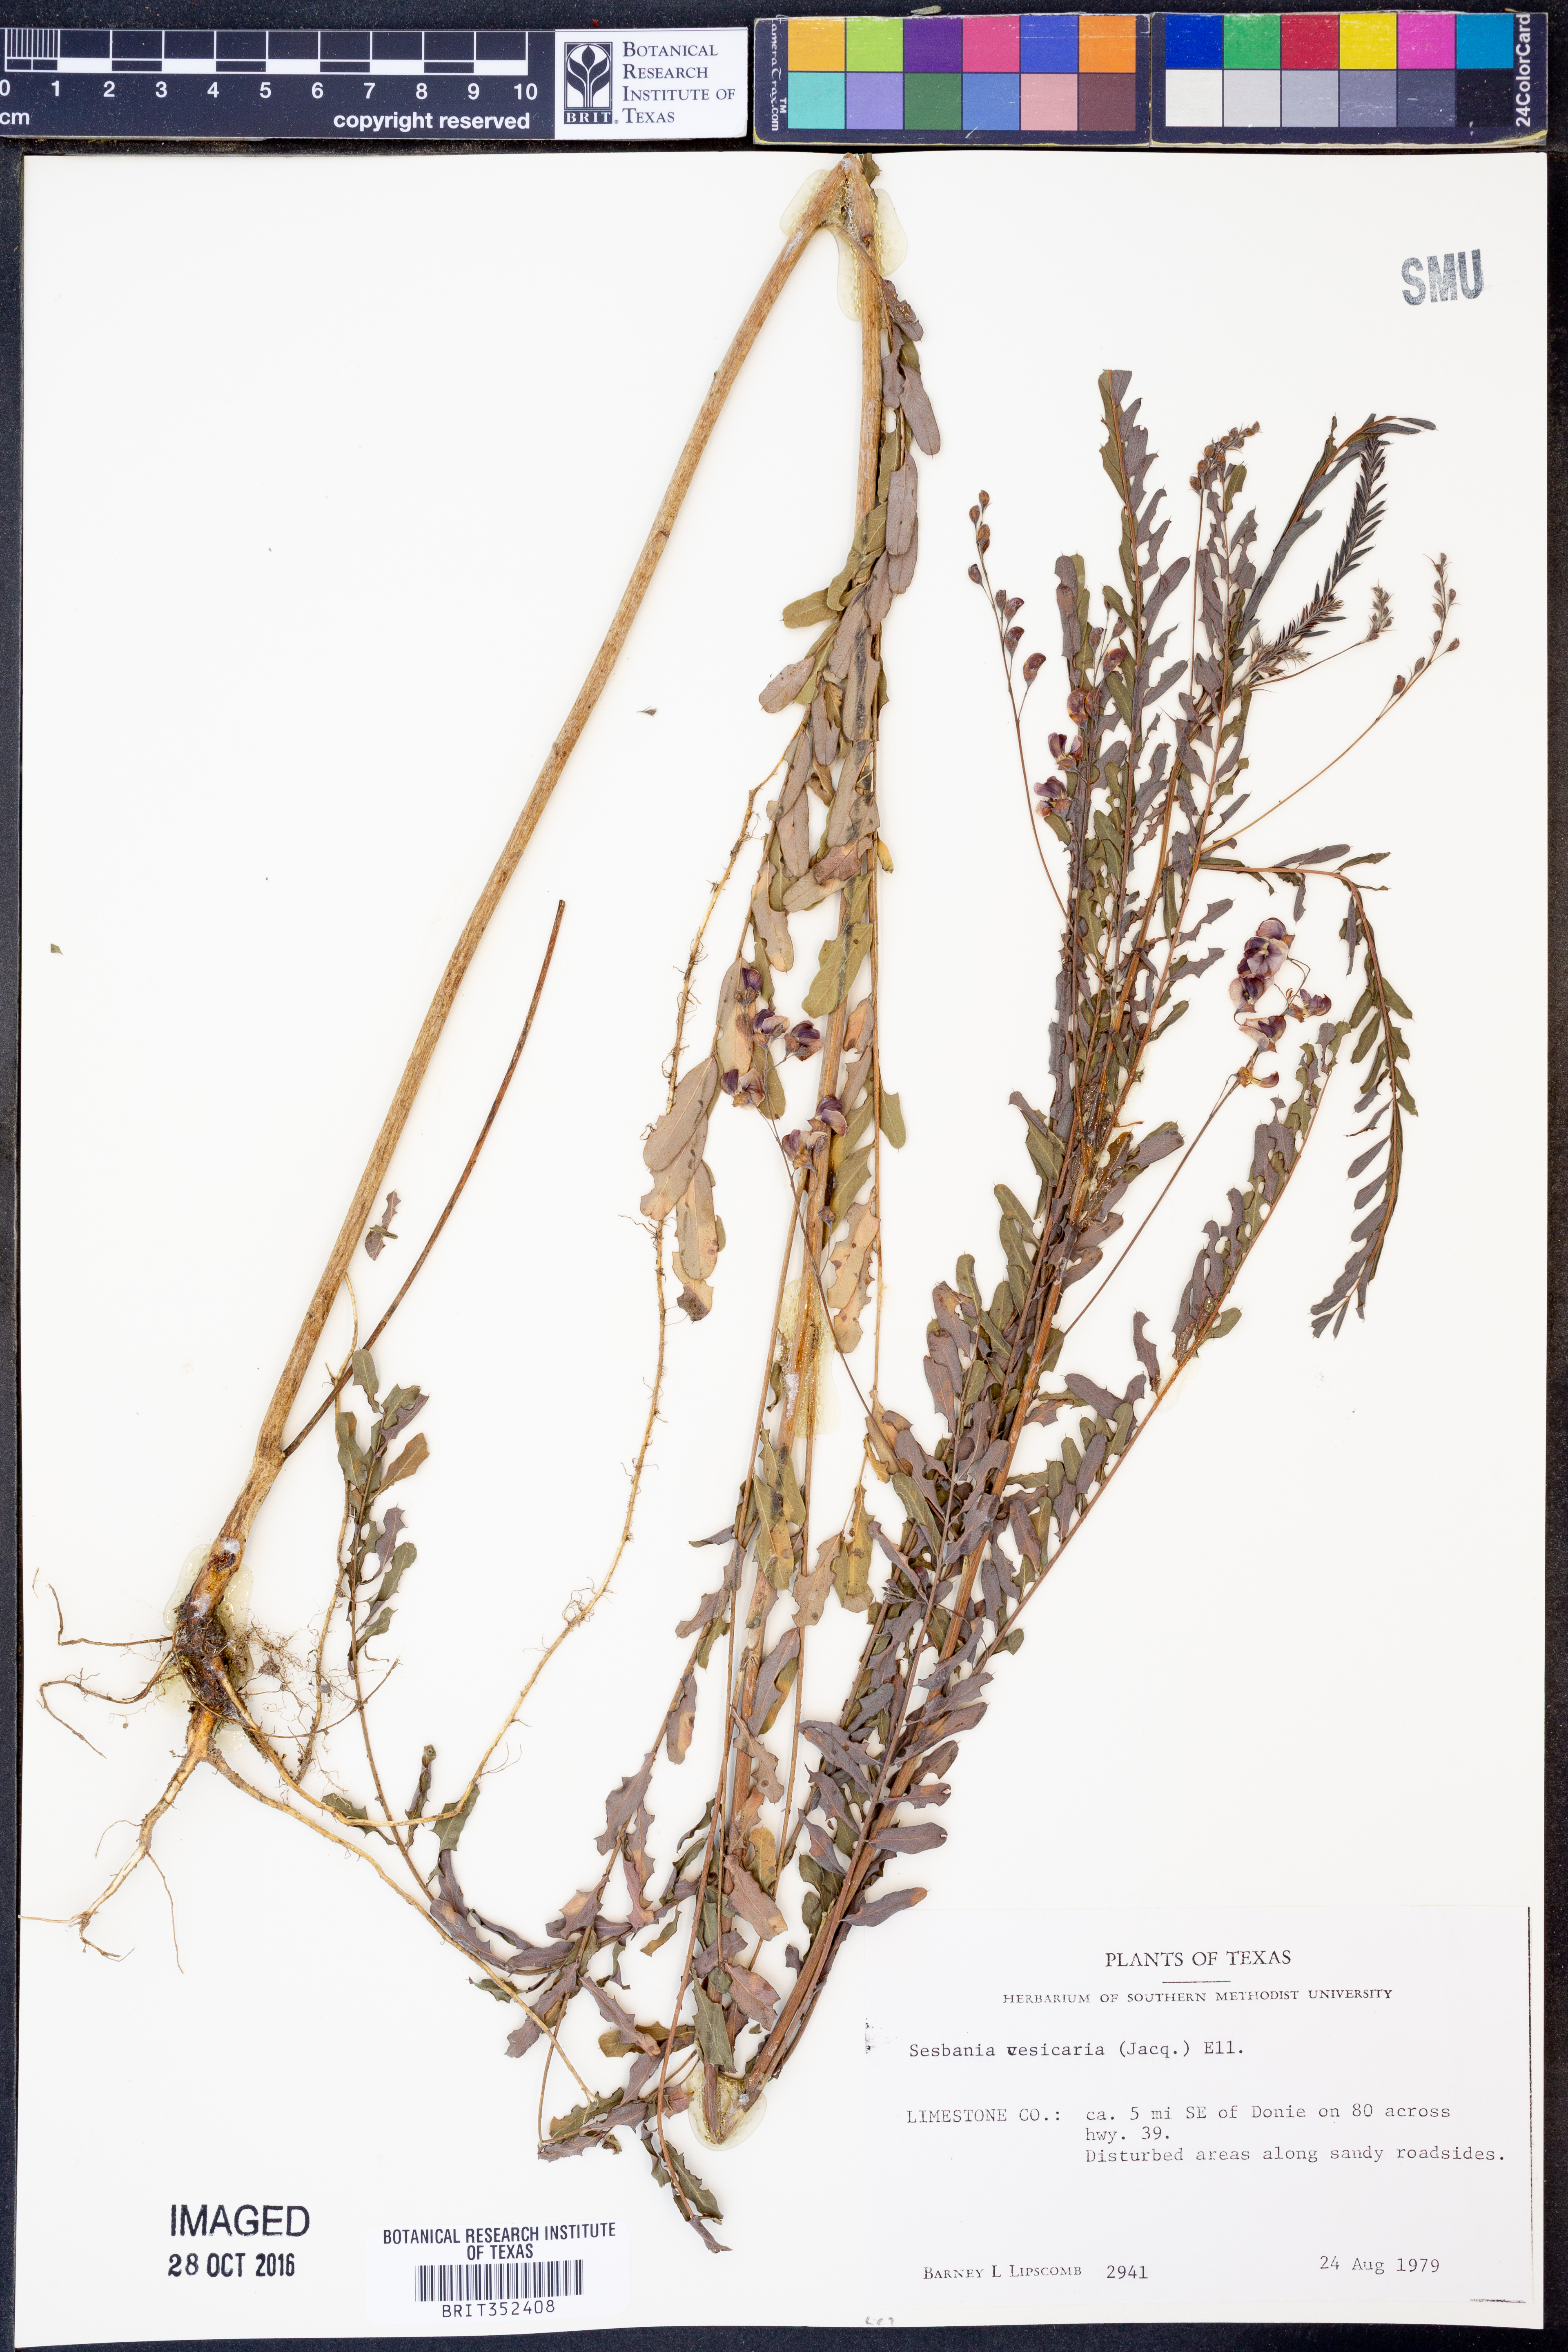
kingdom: Plantae
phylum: Tracheophyta
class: Magnoliopsida
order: Fabales
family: Fabaceae
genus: Sesbania
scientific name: Sesbania vesicaria
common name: Bagpod
